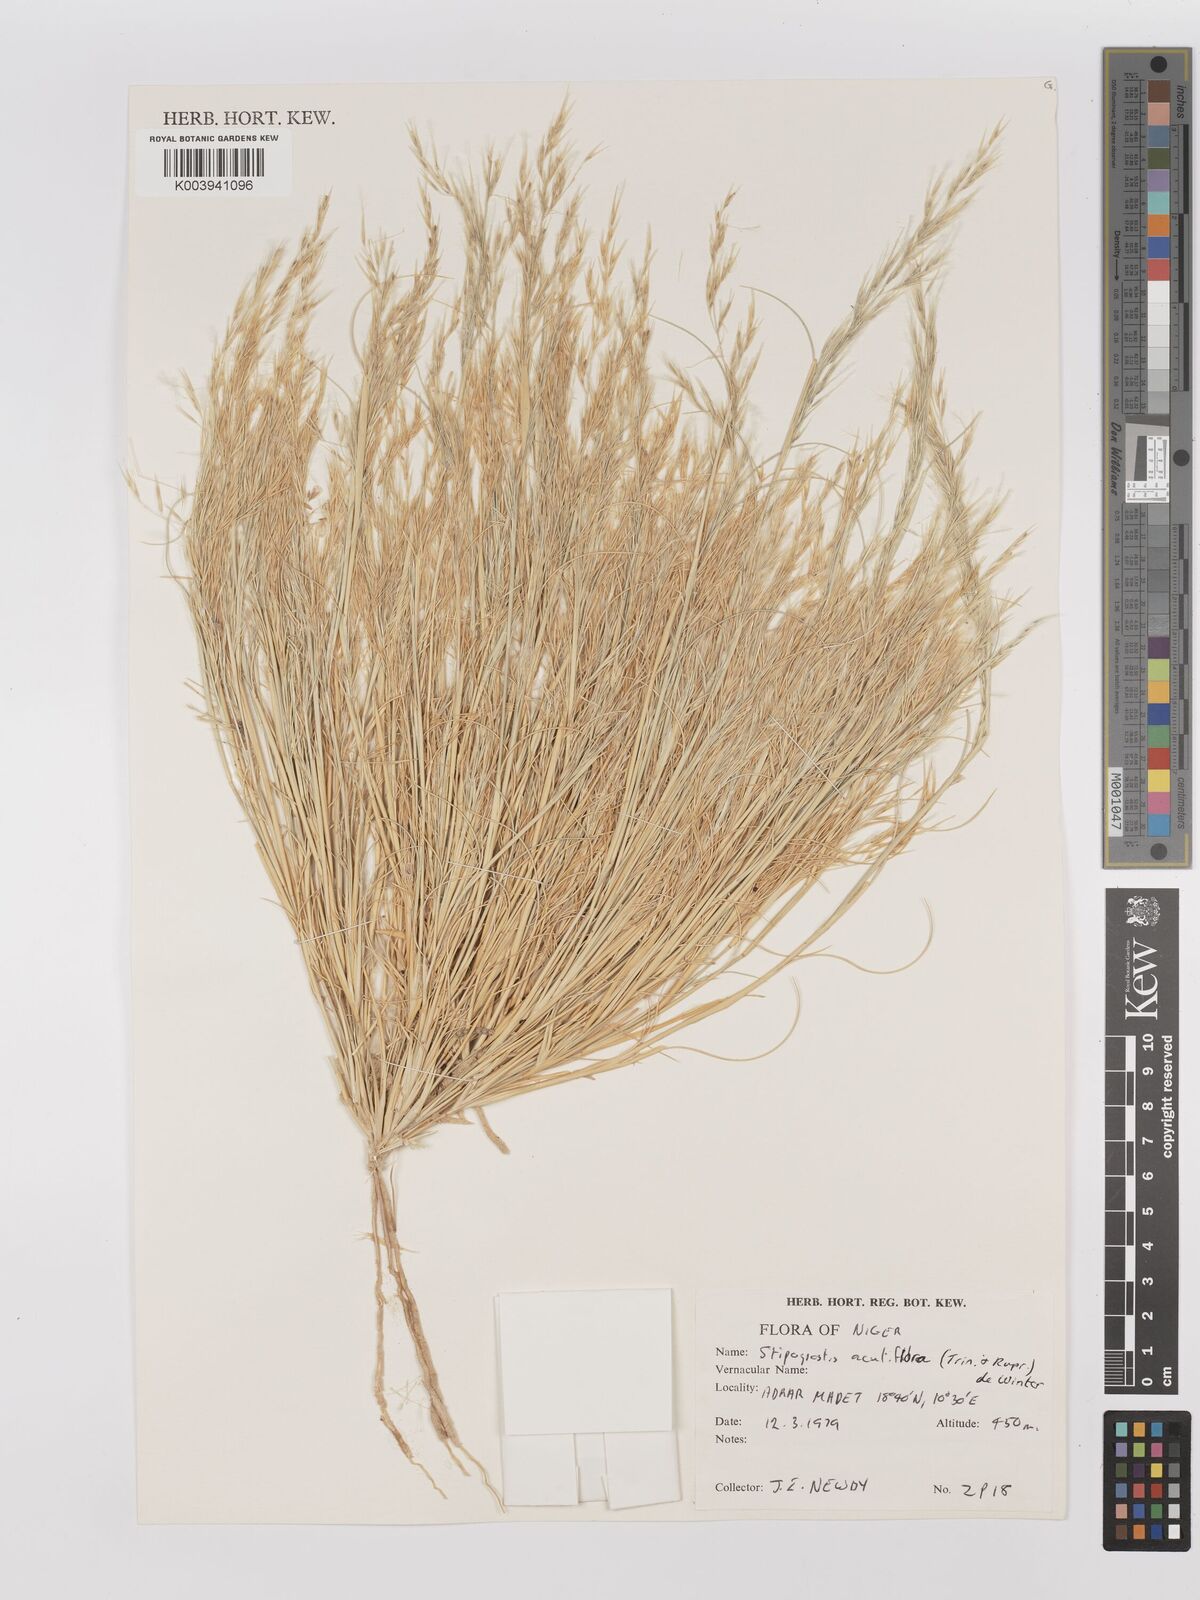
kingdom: Plantae
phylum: Tracheophyta
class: Liliopsida
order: Poales
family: Poaceae
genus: Stipagrostis
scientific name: Stipagrostis acutiflora
